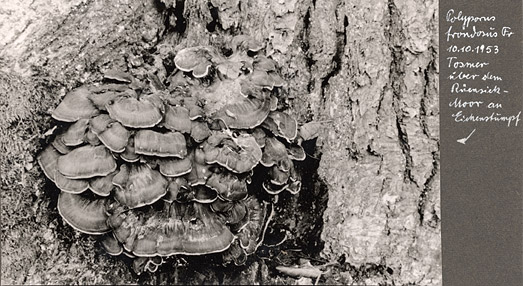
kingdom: Fungi
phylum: Basidiomycota
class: Agaricomycetes
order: Polyporales
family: Grifolaceae
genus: Grifola
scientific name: Grifola frondosa
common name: Hen of the woods
